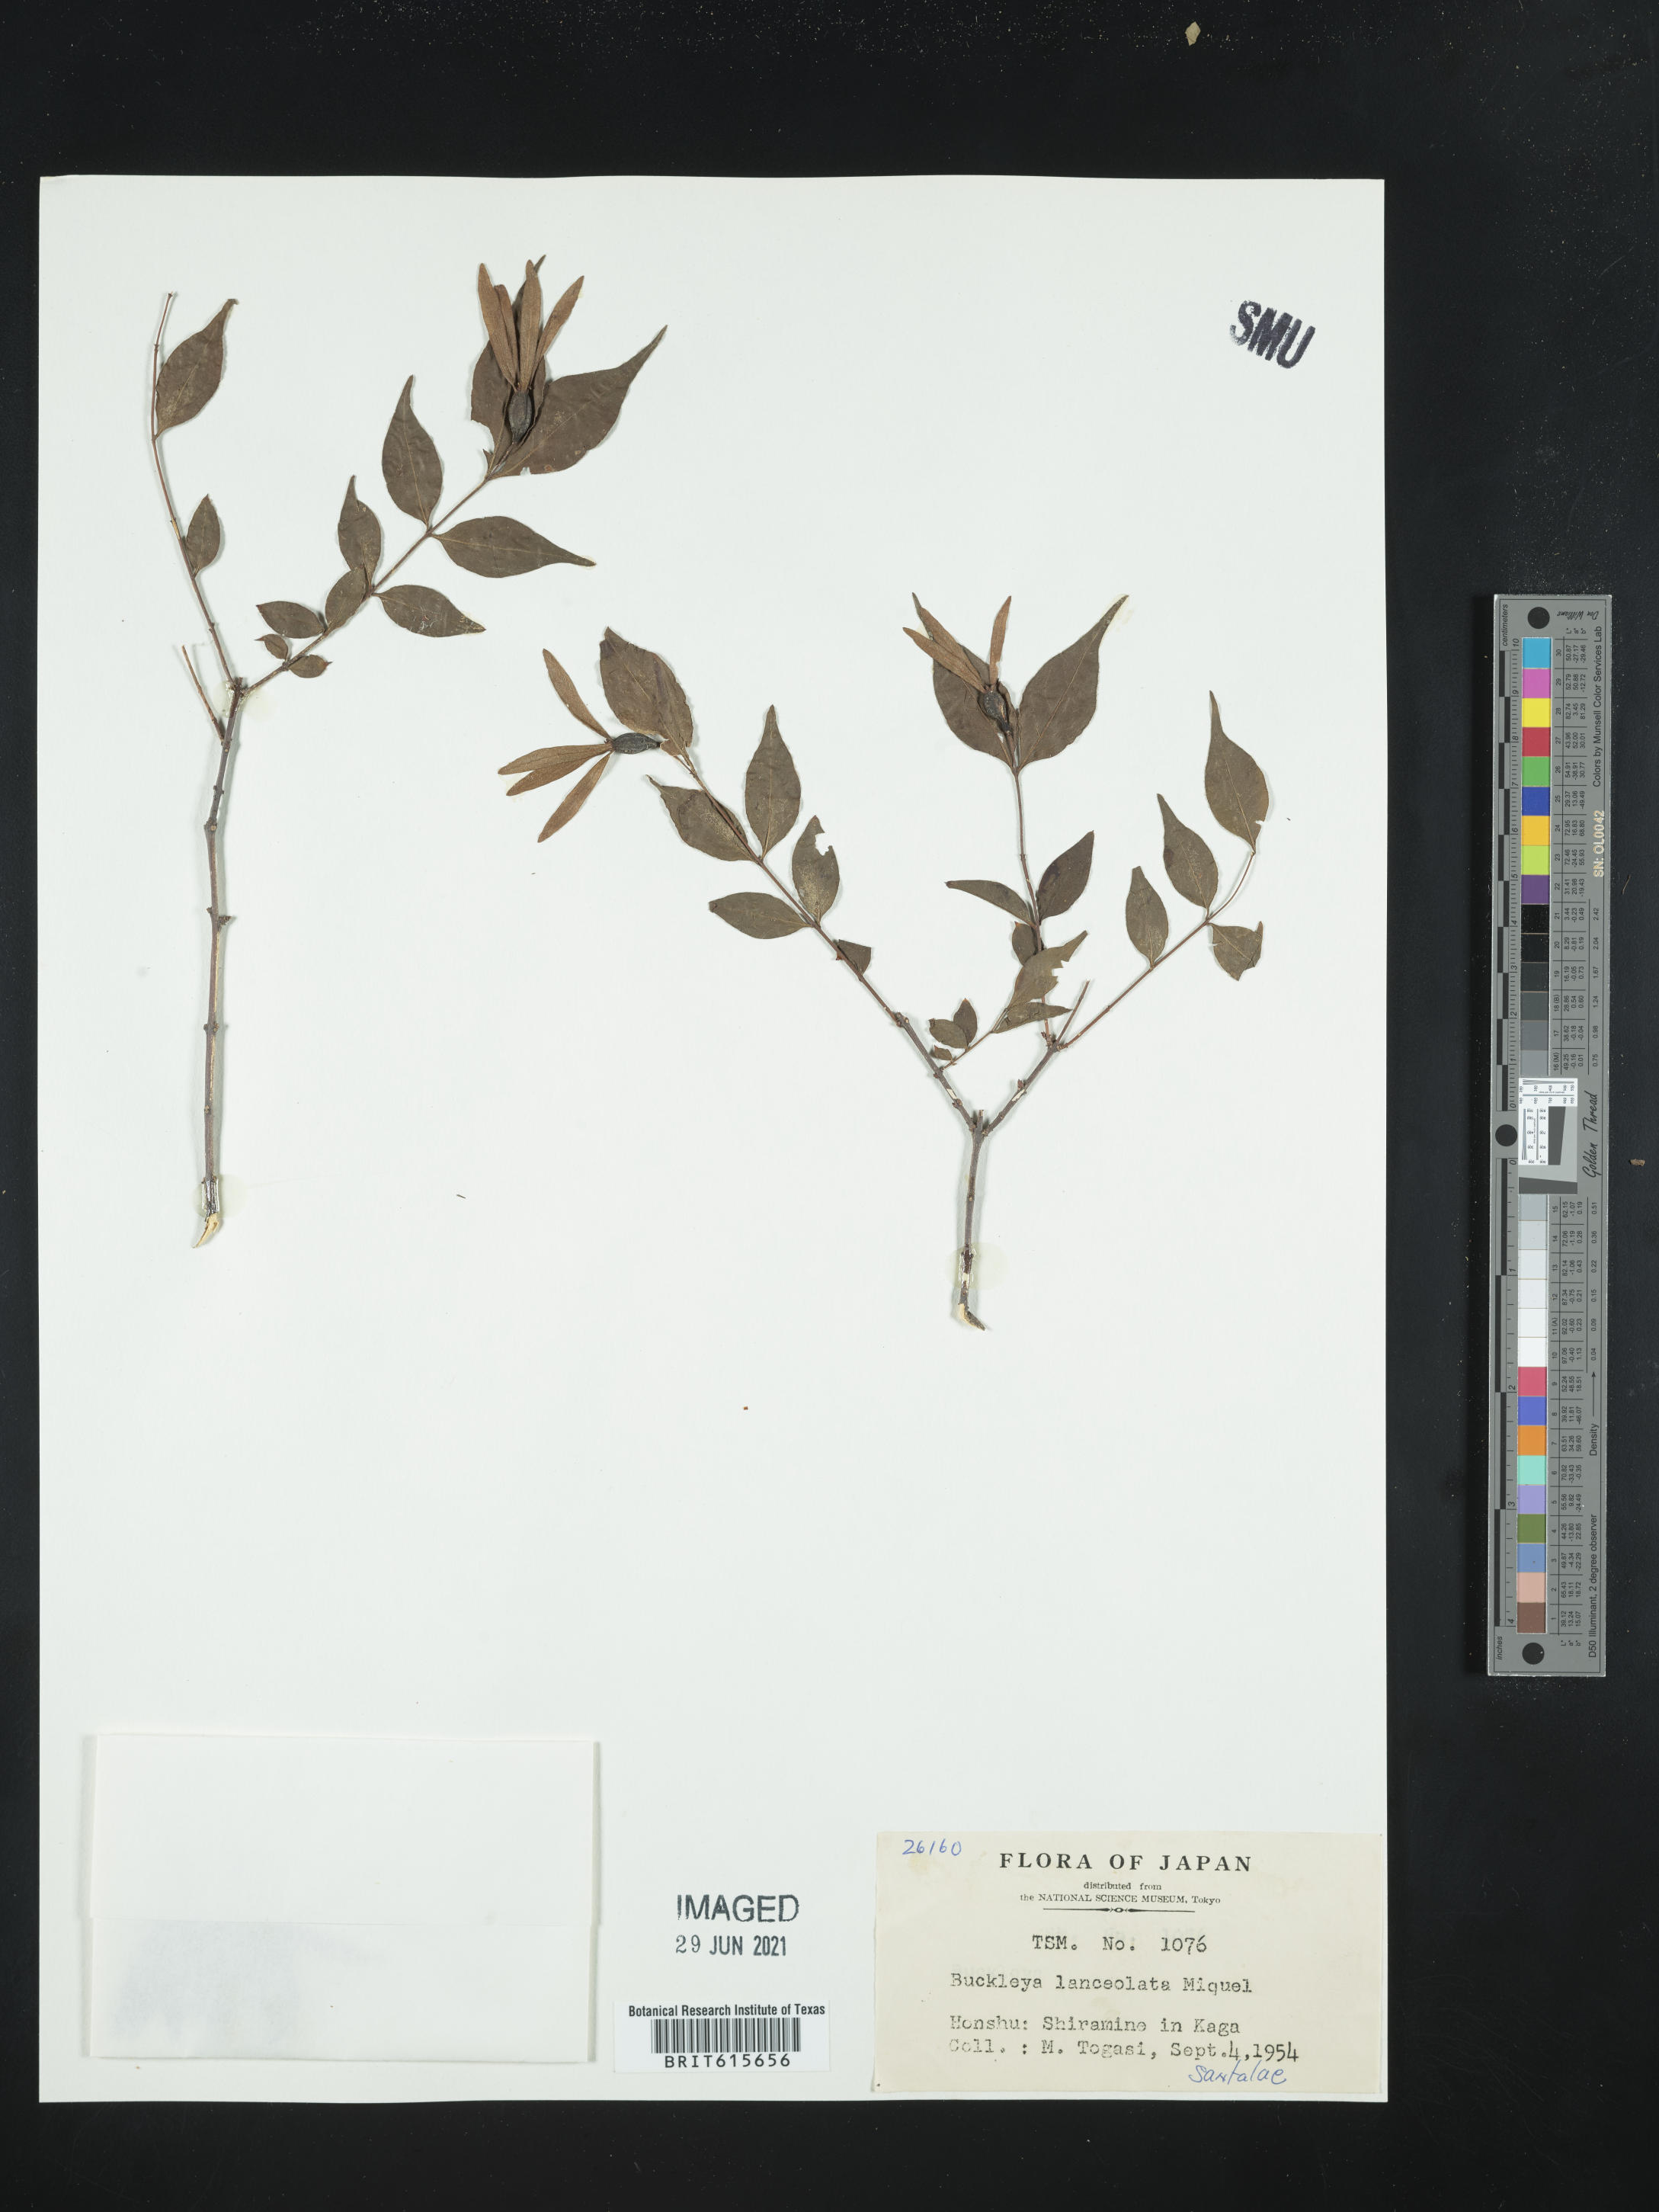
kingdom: Plantae
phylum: Tracheophyta
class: Magnoliopsida
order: Santalales
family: Thesiaceae
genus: Buckleya
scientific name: Buckleya lanceolata
